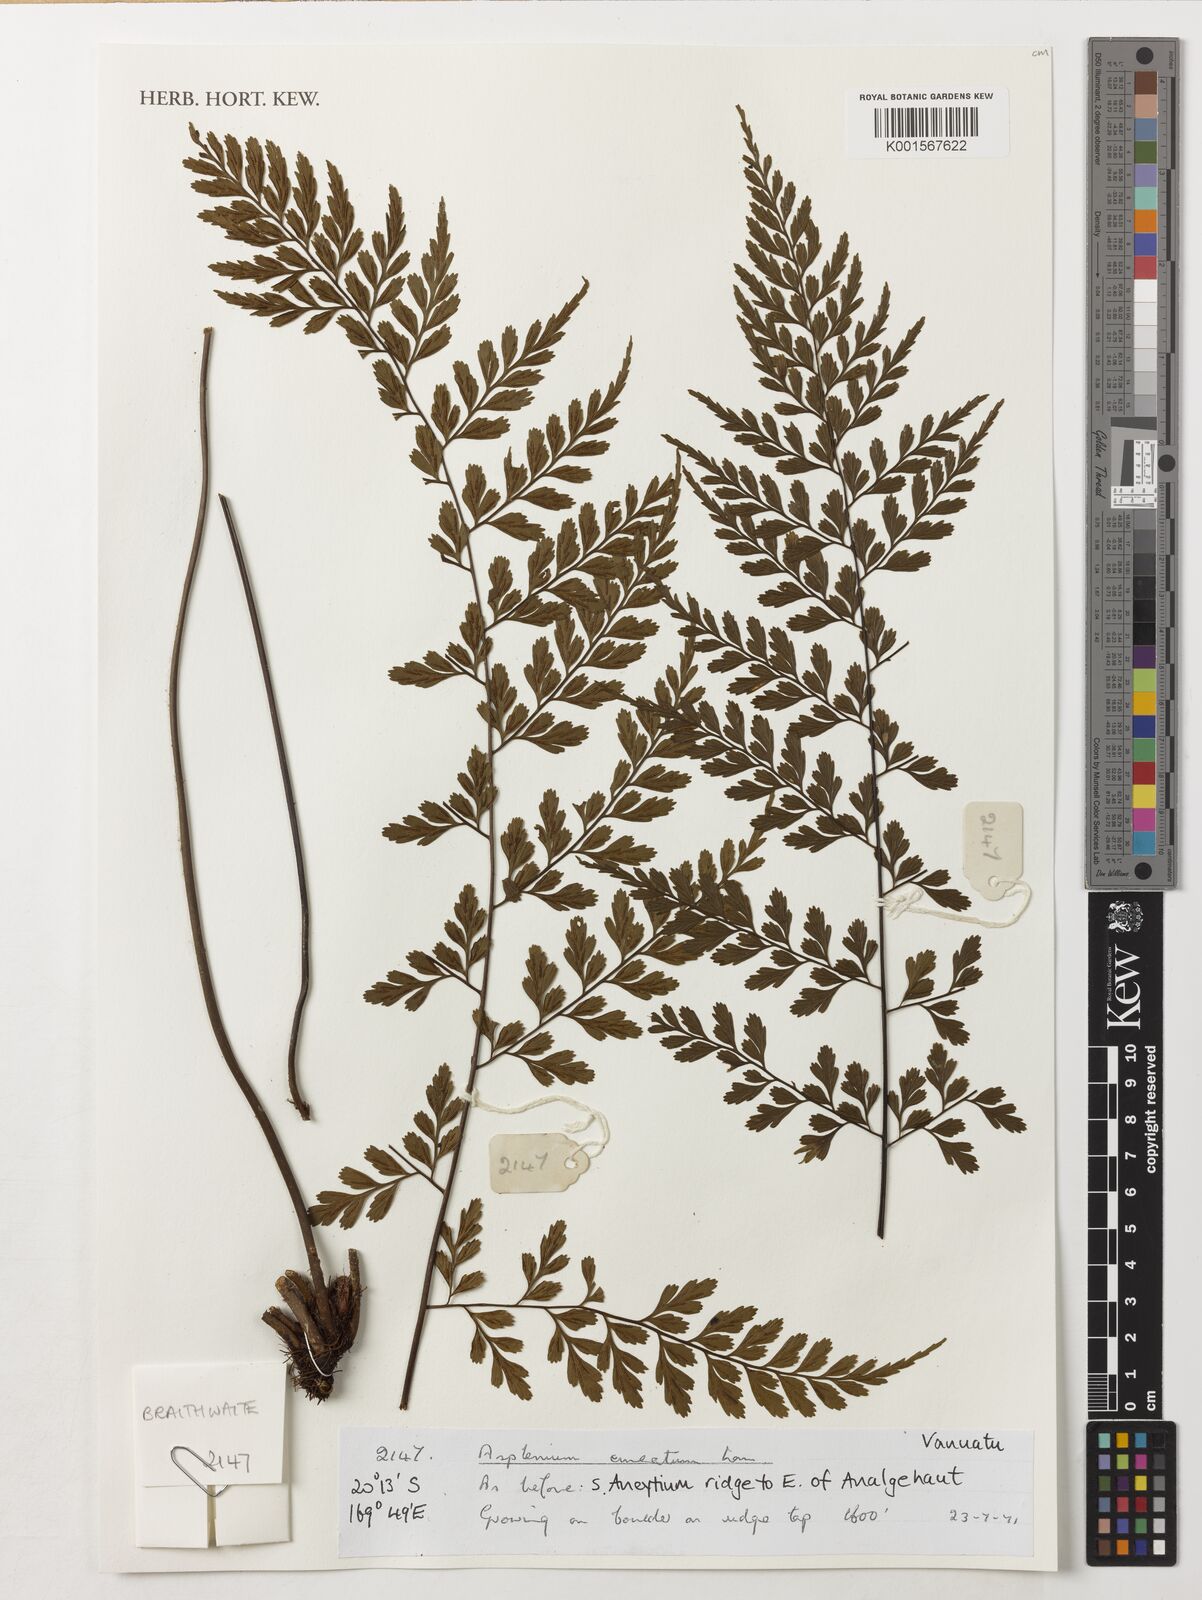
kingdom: Plantae
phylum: Tracheophyta
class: Polypodiopsida
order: Polypodiales
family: Aspleniaceae
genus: Asplenium
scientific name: Asplenium cuneatum
